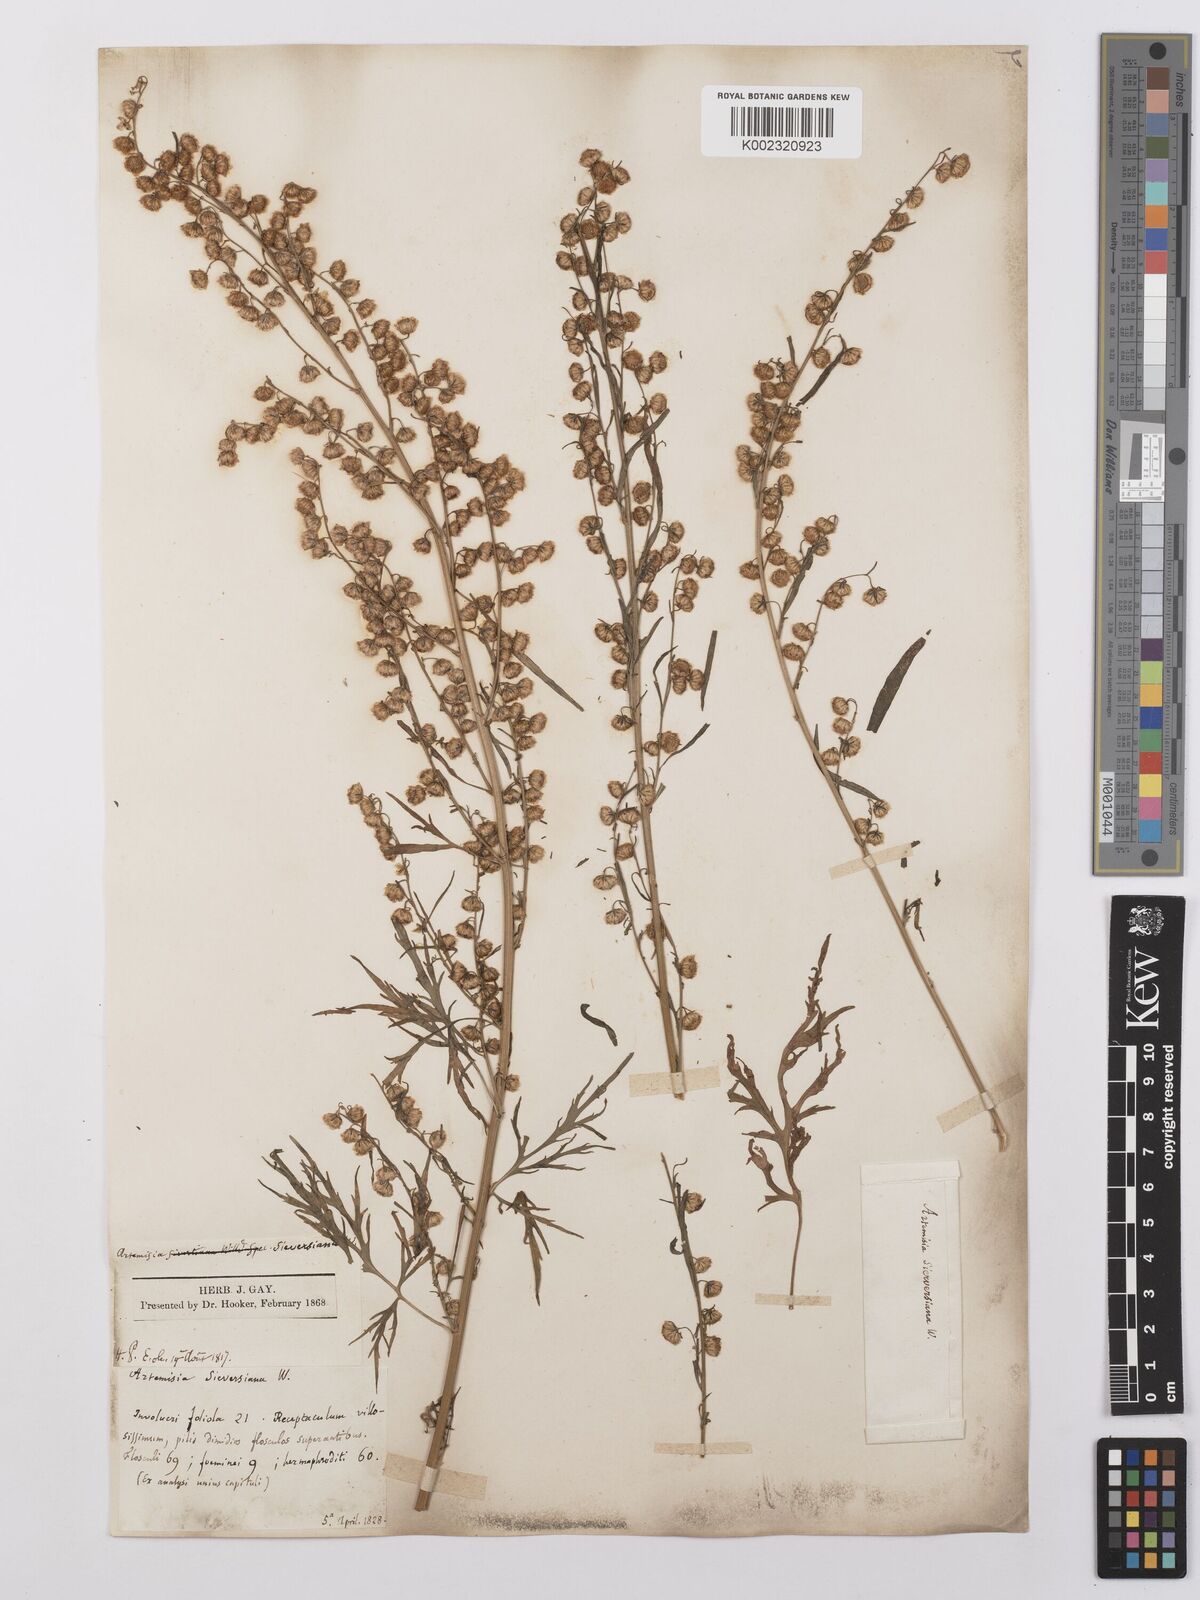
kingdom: Plantae
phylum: Tracheophyta
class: Magnoliopsida
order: Asterales
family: Asteraceae
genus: Artemisia
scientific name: Artemisia sieversiana
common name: Sieversian wormwood
